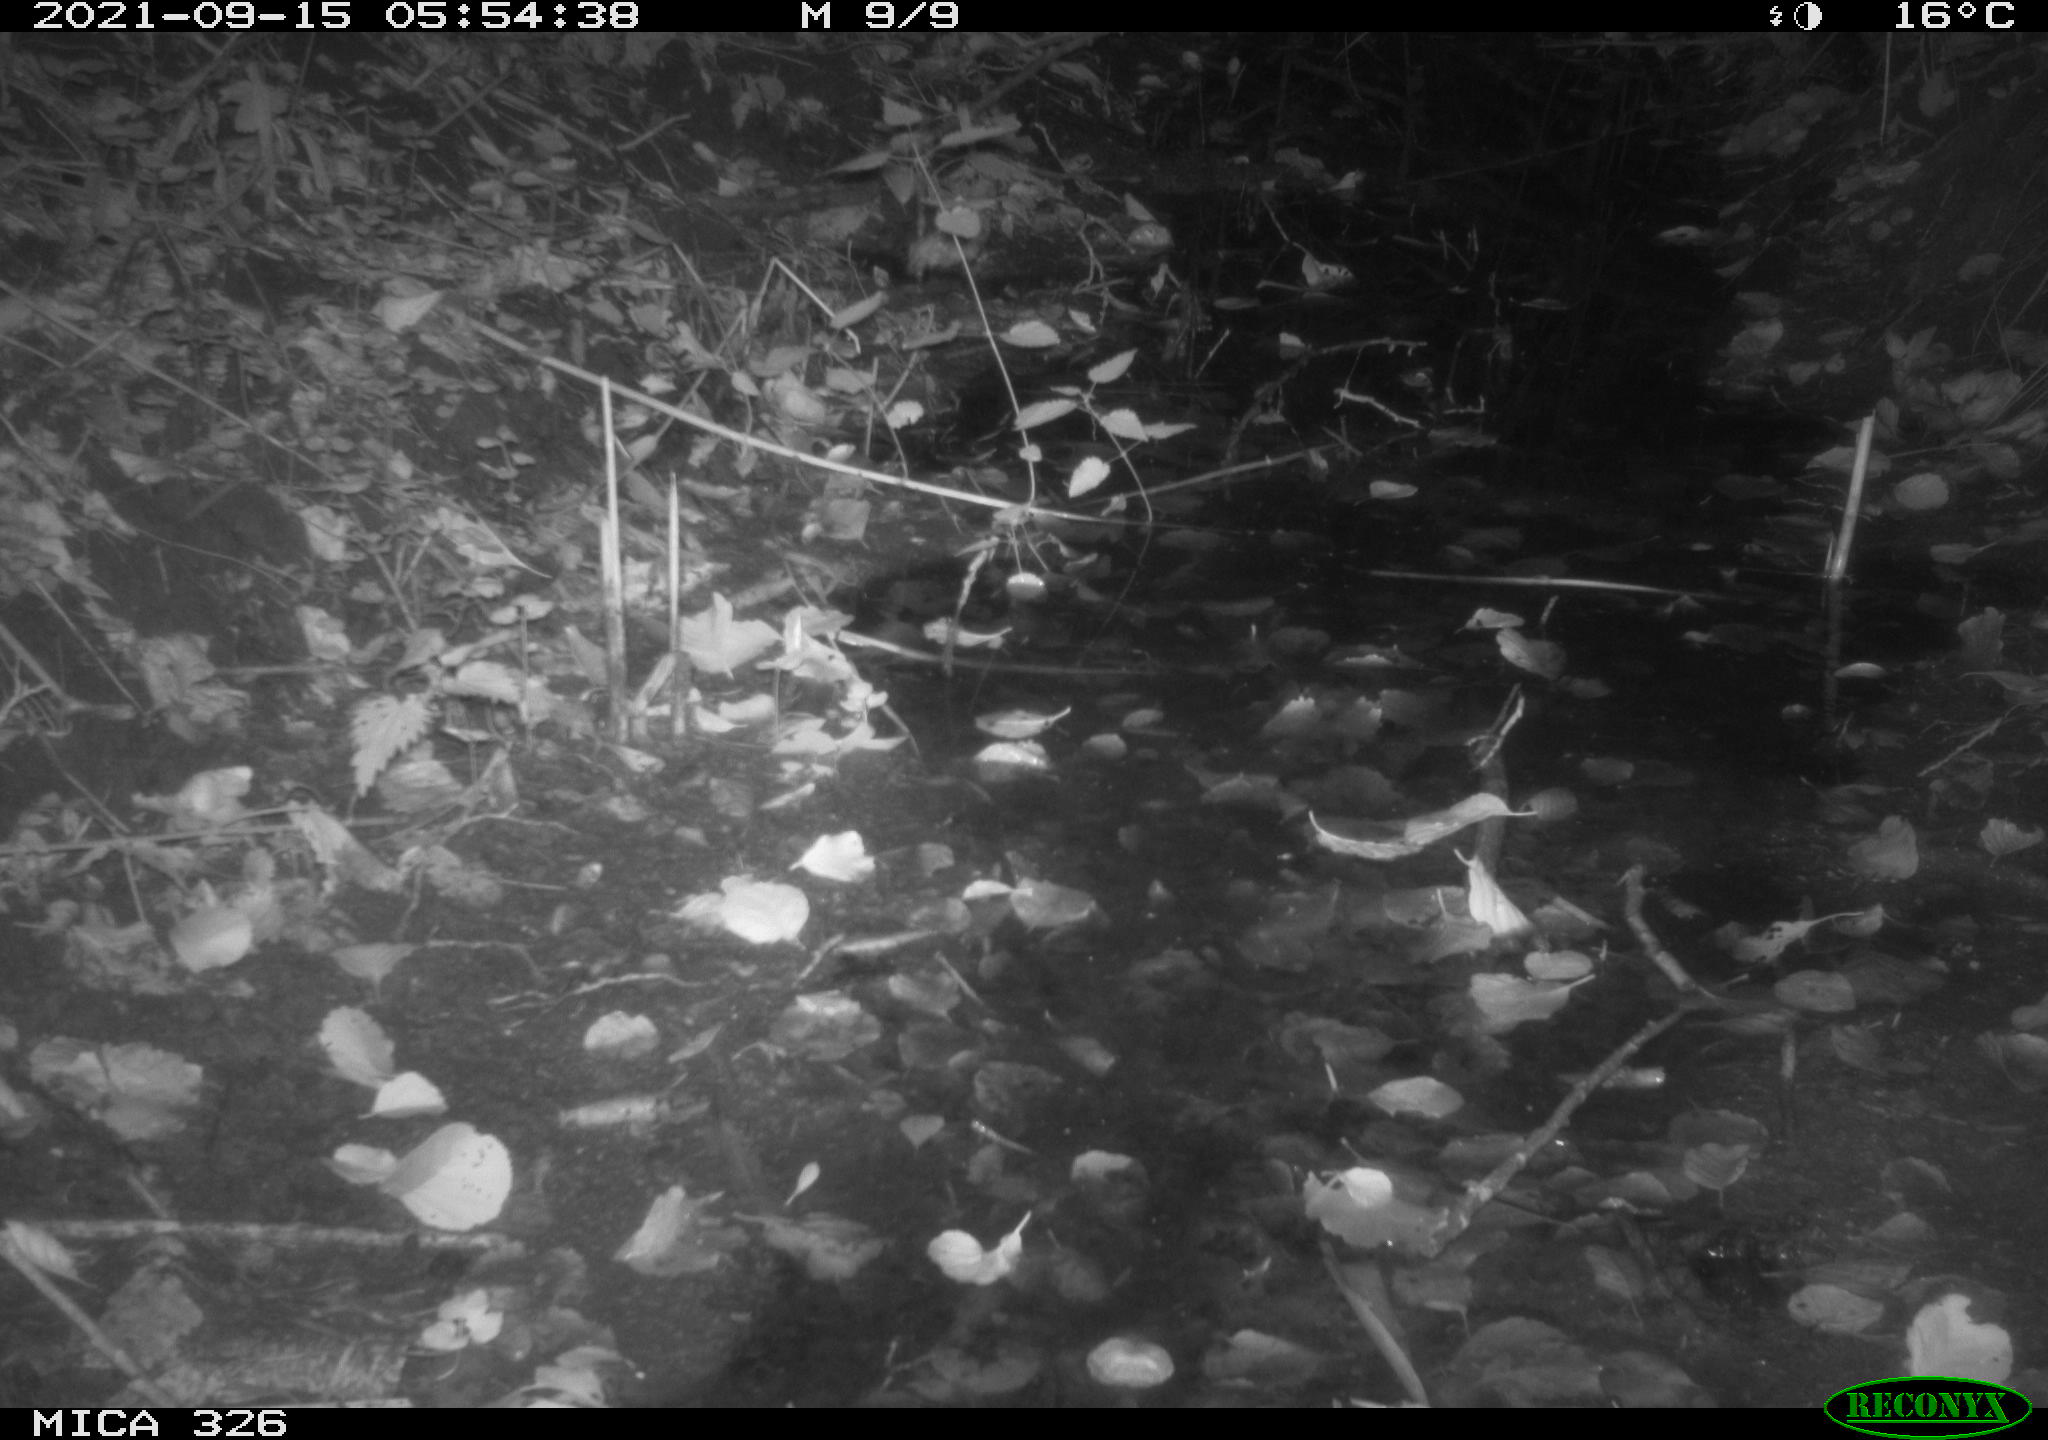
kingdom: Animalia
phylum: Chordata
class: Mammalia
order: Rodentia
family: Muridae
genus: Rattus
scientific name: Rattus norvegicus
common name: Brown rat
